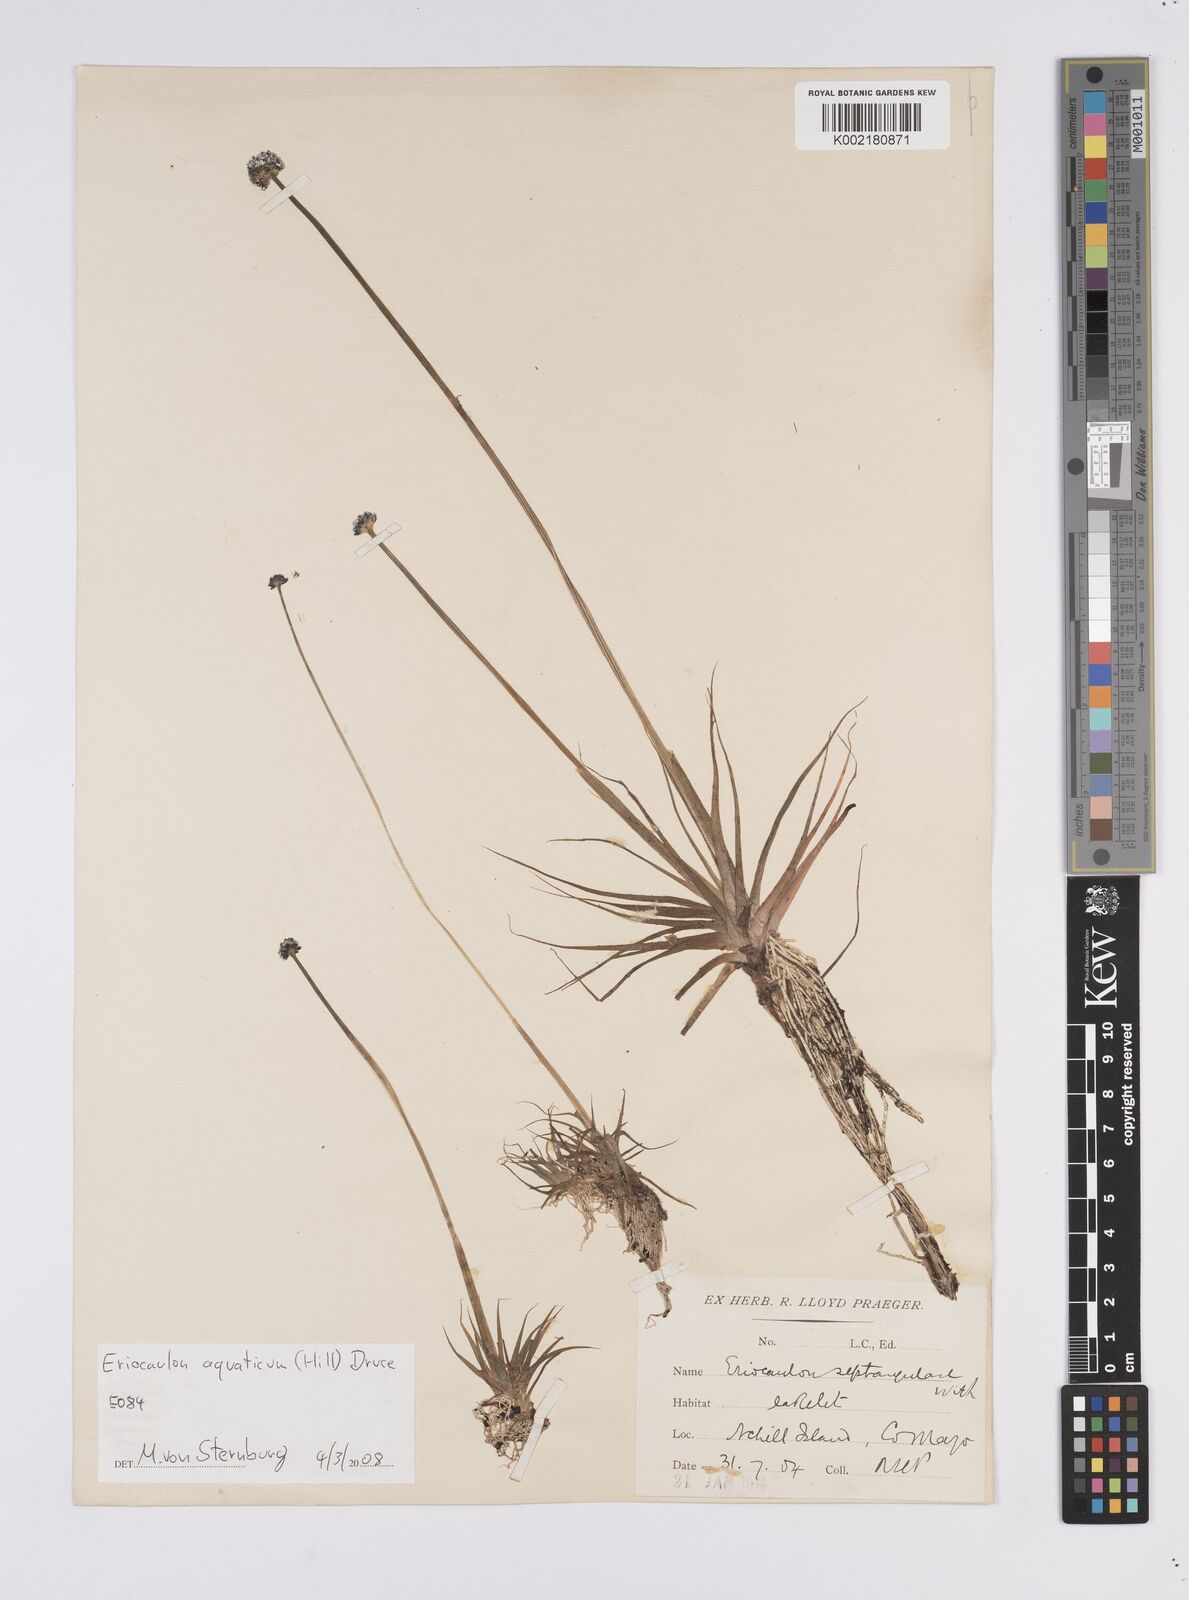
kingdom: Plantae
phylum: Tracheophyta
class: Liliopsida
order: Poales
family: Eriocaulaceae
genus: Eriocaulon
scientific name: Eriocaulon aquaticum
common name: Pipewort
